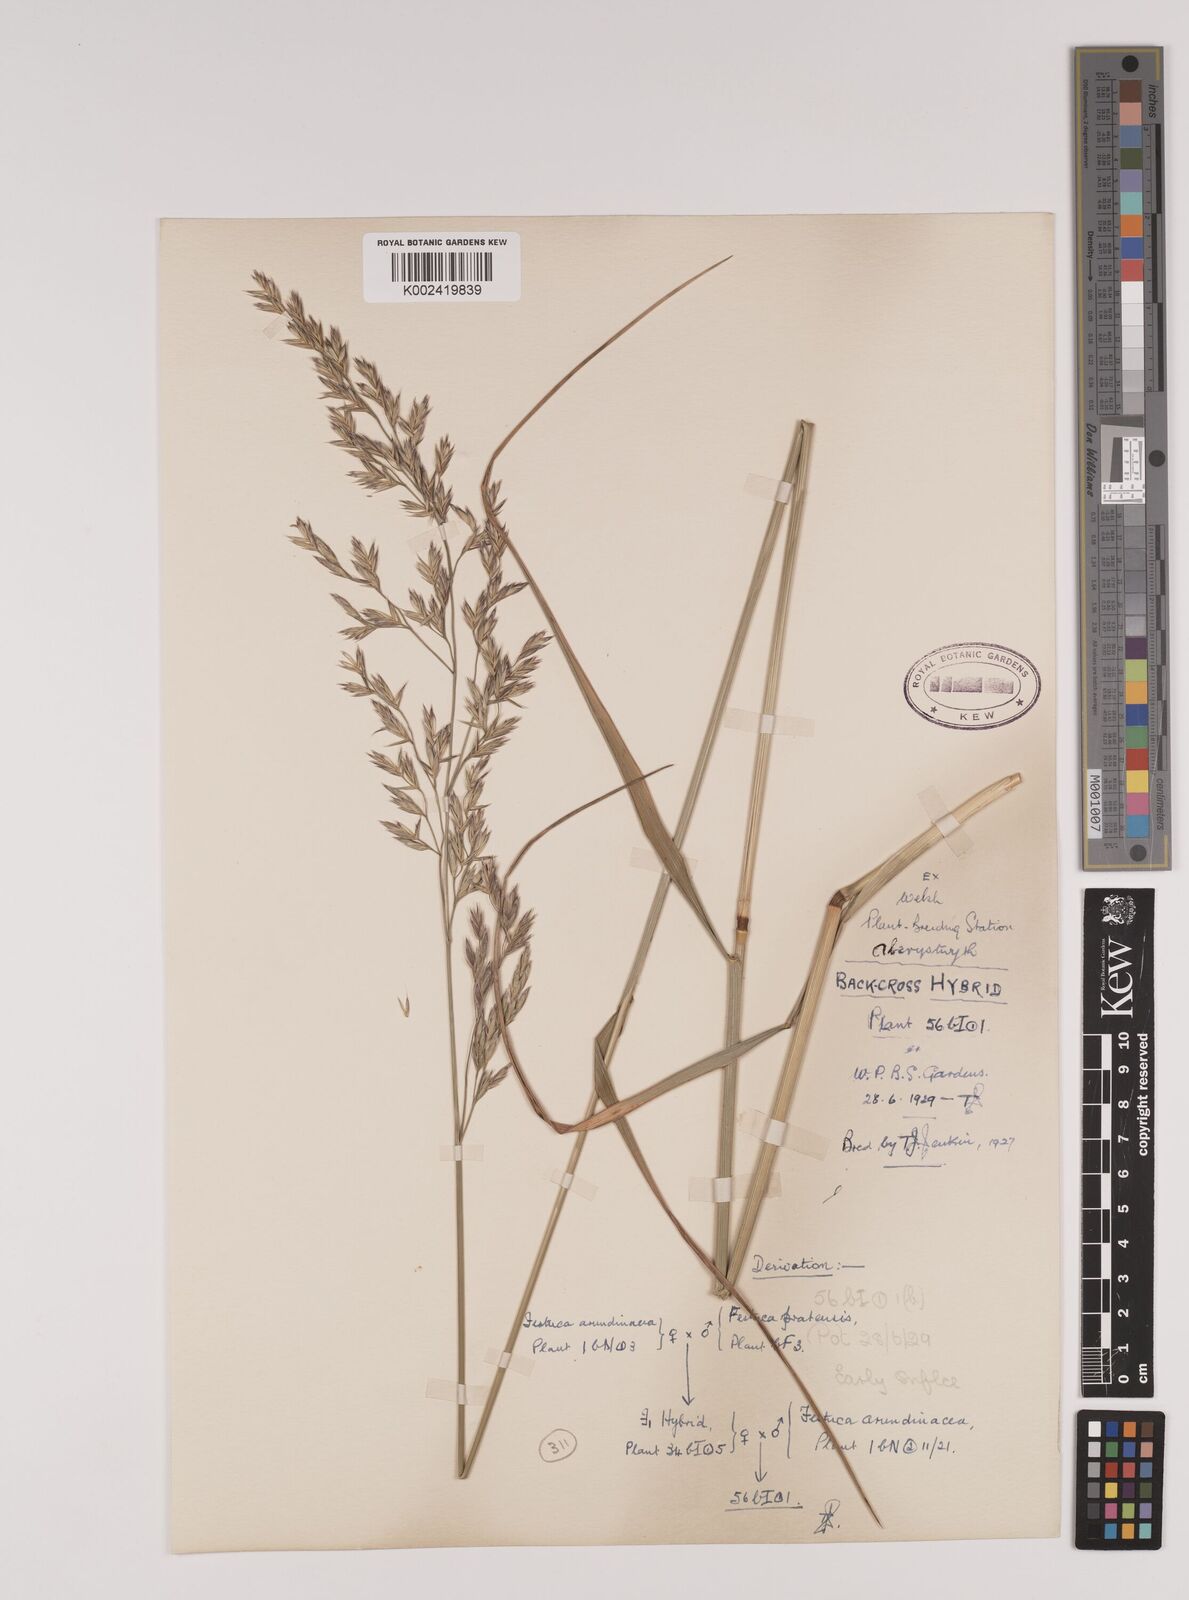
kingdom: Plantae
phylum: Tracheophyta
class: Liliopsida
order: Poales
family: Poaceae
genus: Festuca
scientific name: Festuca rubra
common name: Red fescue
